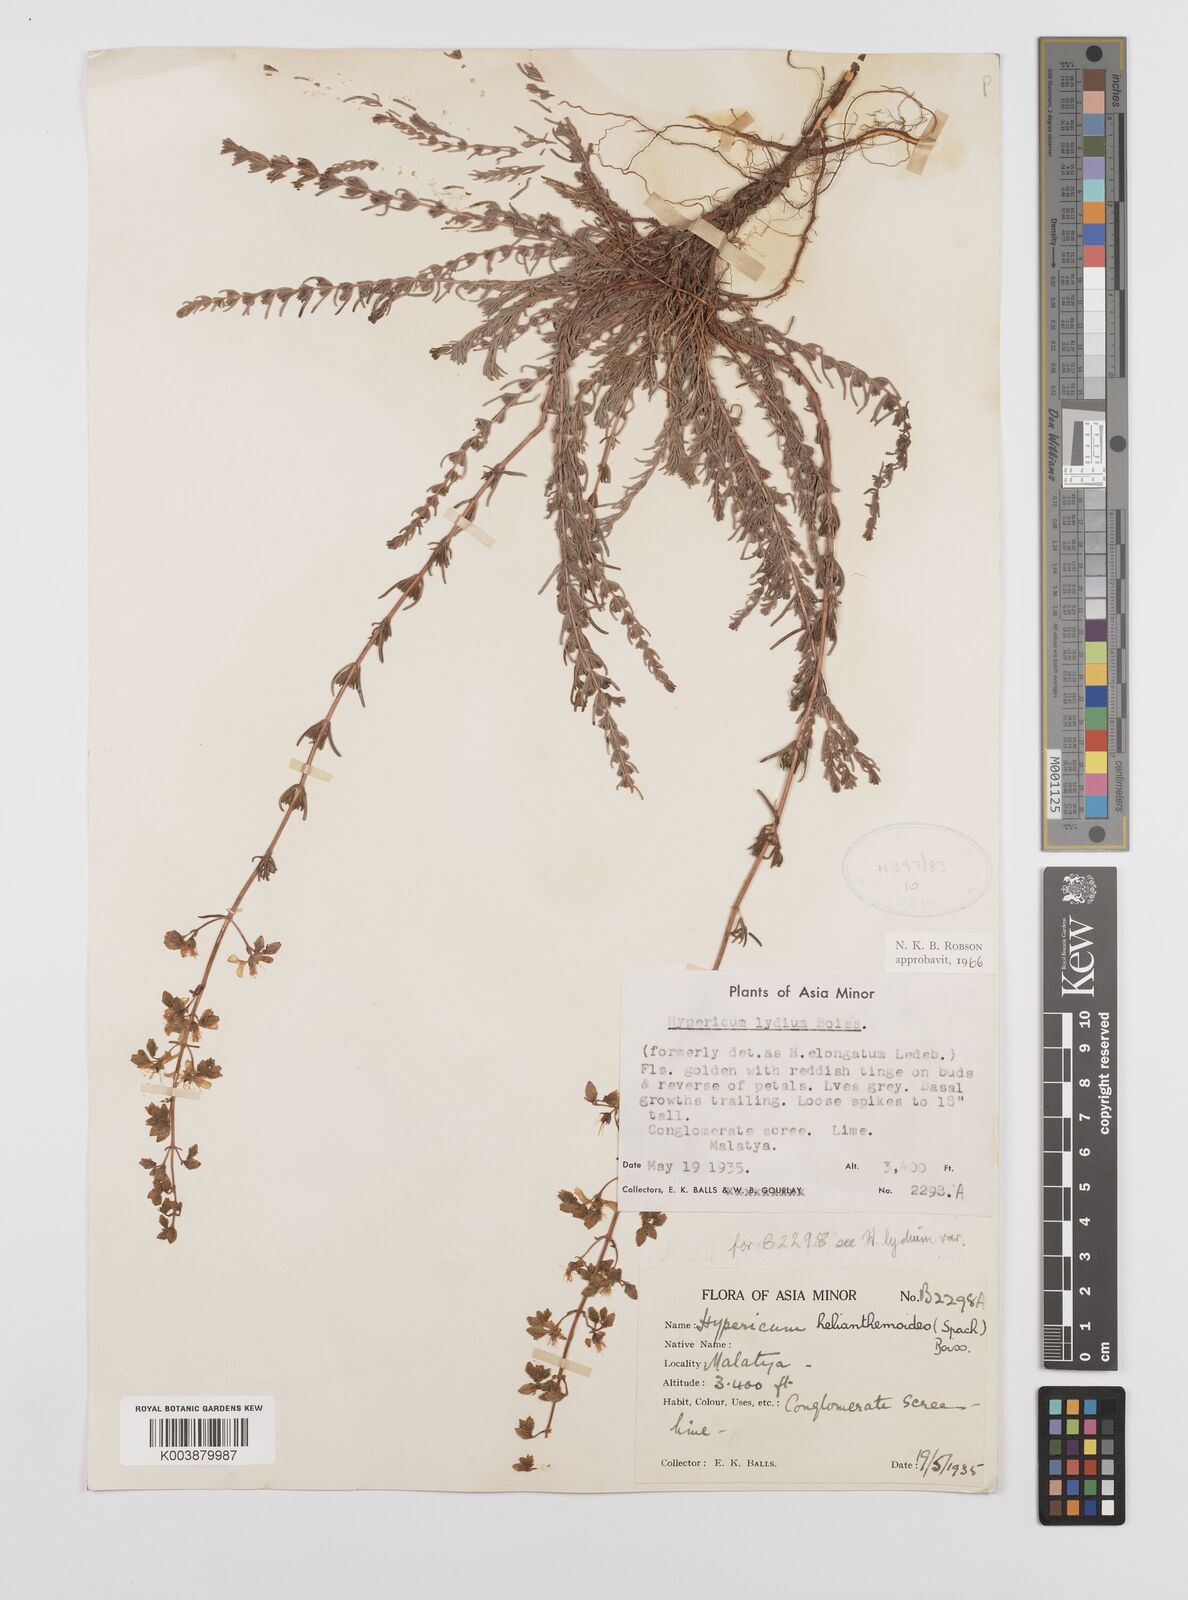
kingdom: Plantae
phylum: Tracheophyta
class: Magnoliopsida
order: Malpighiales
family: Hypericaceae
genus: Hypericum
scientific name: Hypericum lydium
